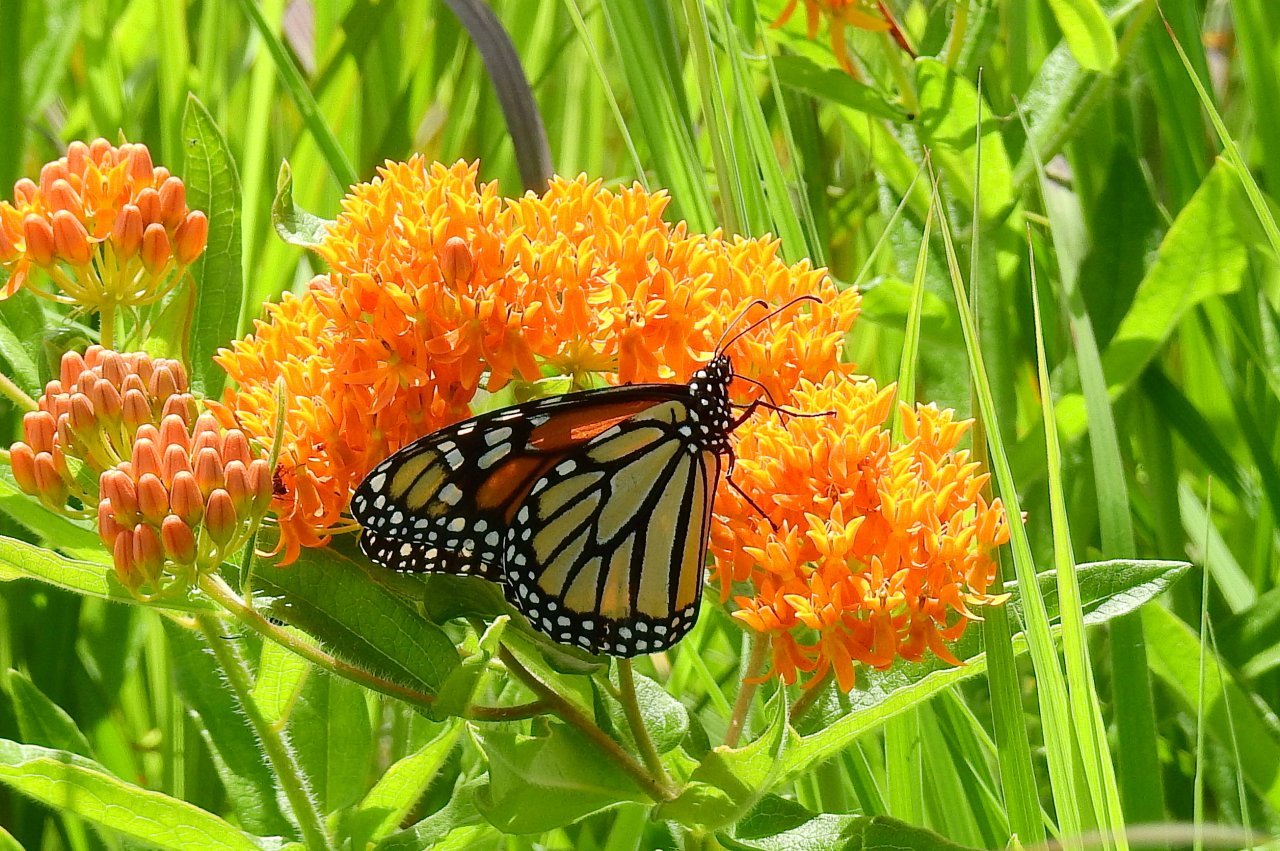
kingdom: Animalia
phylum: Arthropoda
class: Insecta
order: Lepidoptera
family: Nymphalidae
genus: Danaus
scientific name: Danaus plexippus
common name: Monarch
